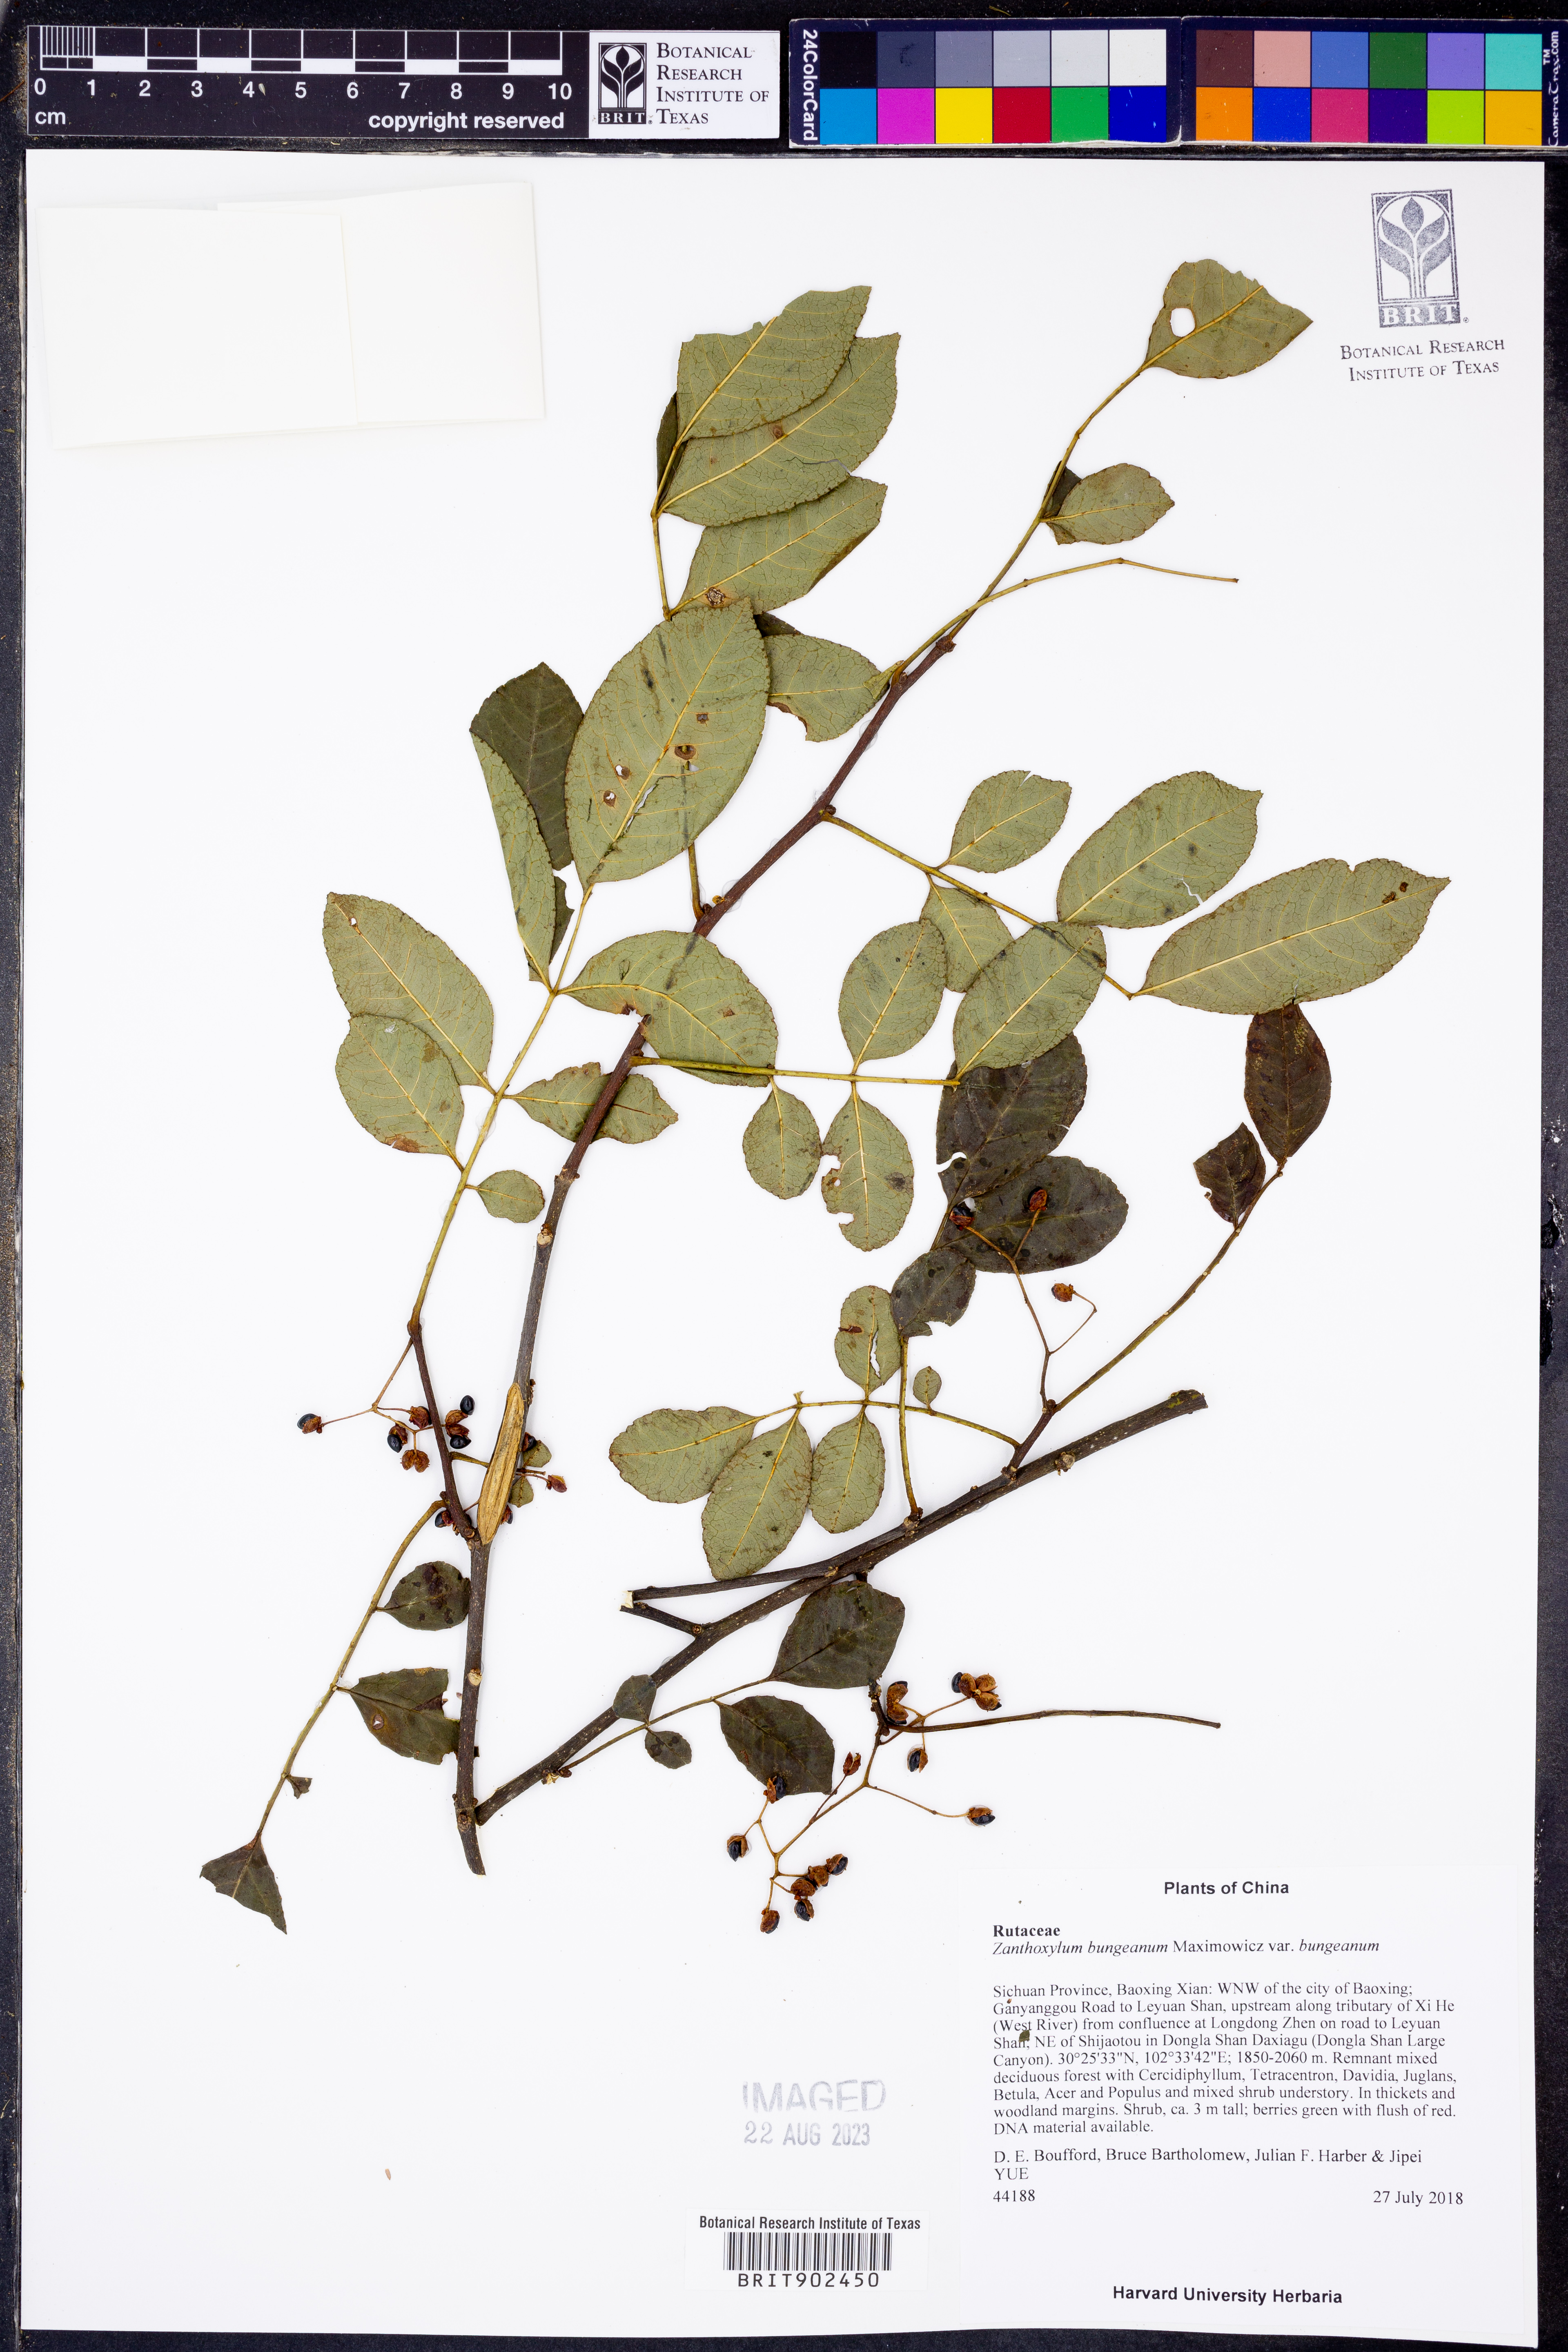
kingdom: Plantae
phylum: Tracheophyta
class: Magnoliopsida
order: Sapindales
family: Rutaceae
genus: Zanthoxylum
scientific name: Zanthoxylum
